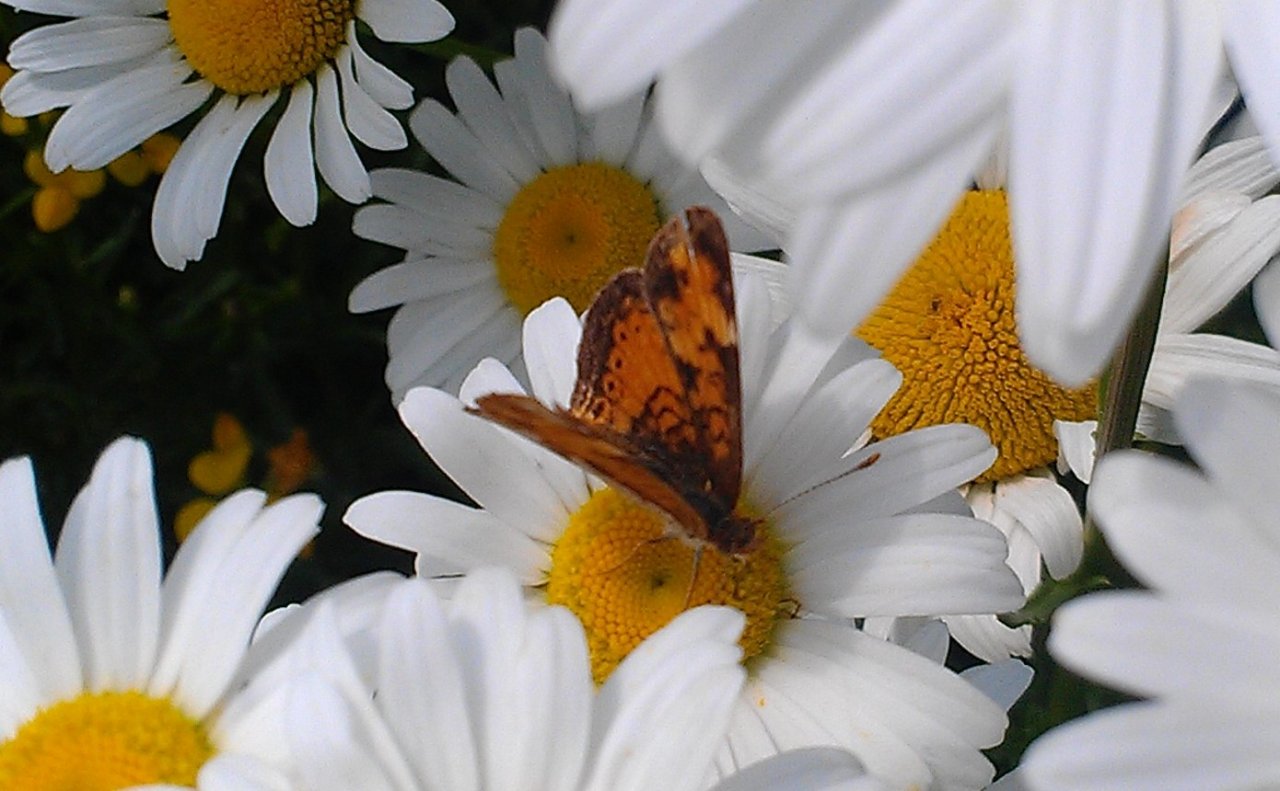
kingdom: Animalia
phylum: Arthropoda
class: Insecta
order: Lepidoptera
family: Nymphalidae
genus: Phyciodes
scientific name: Phyciodes tharos
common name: Northern Crescent
